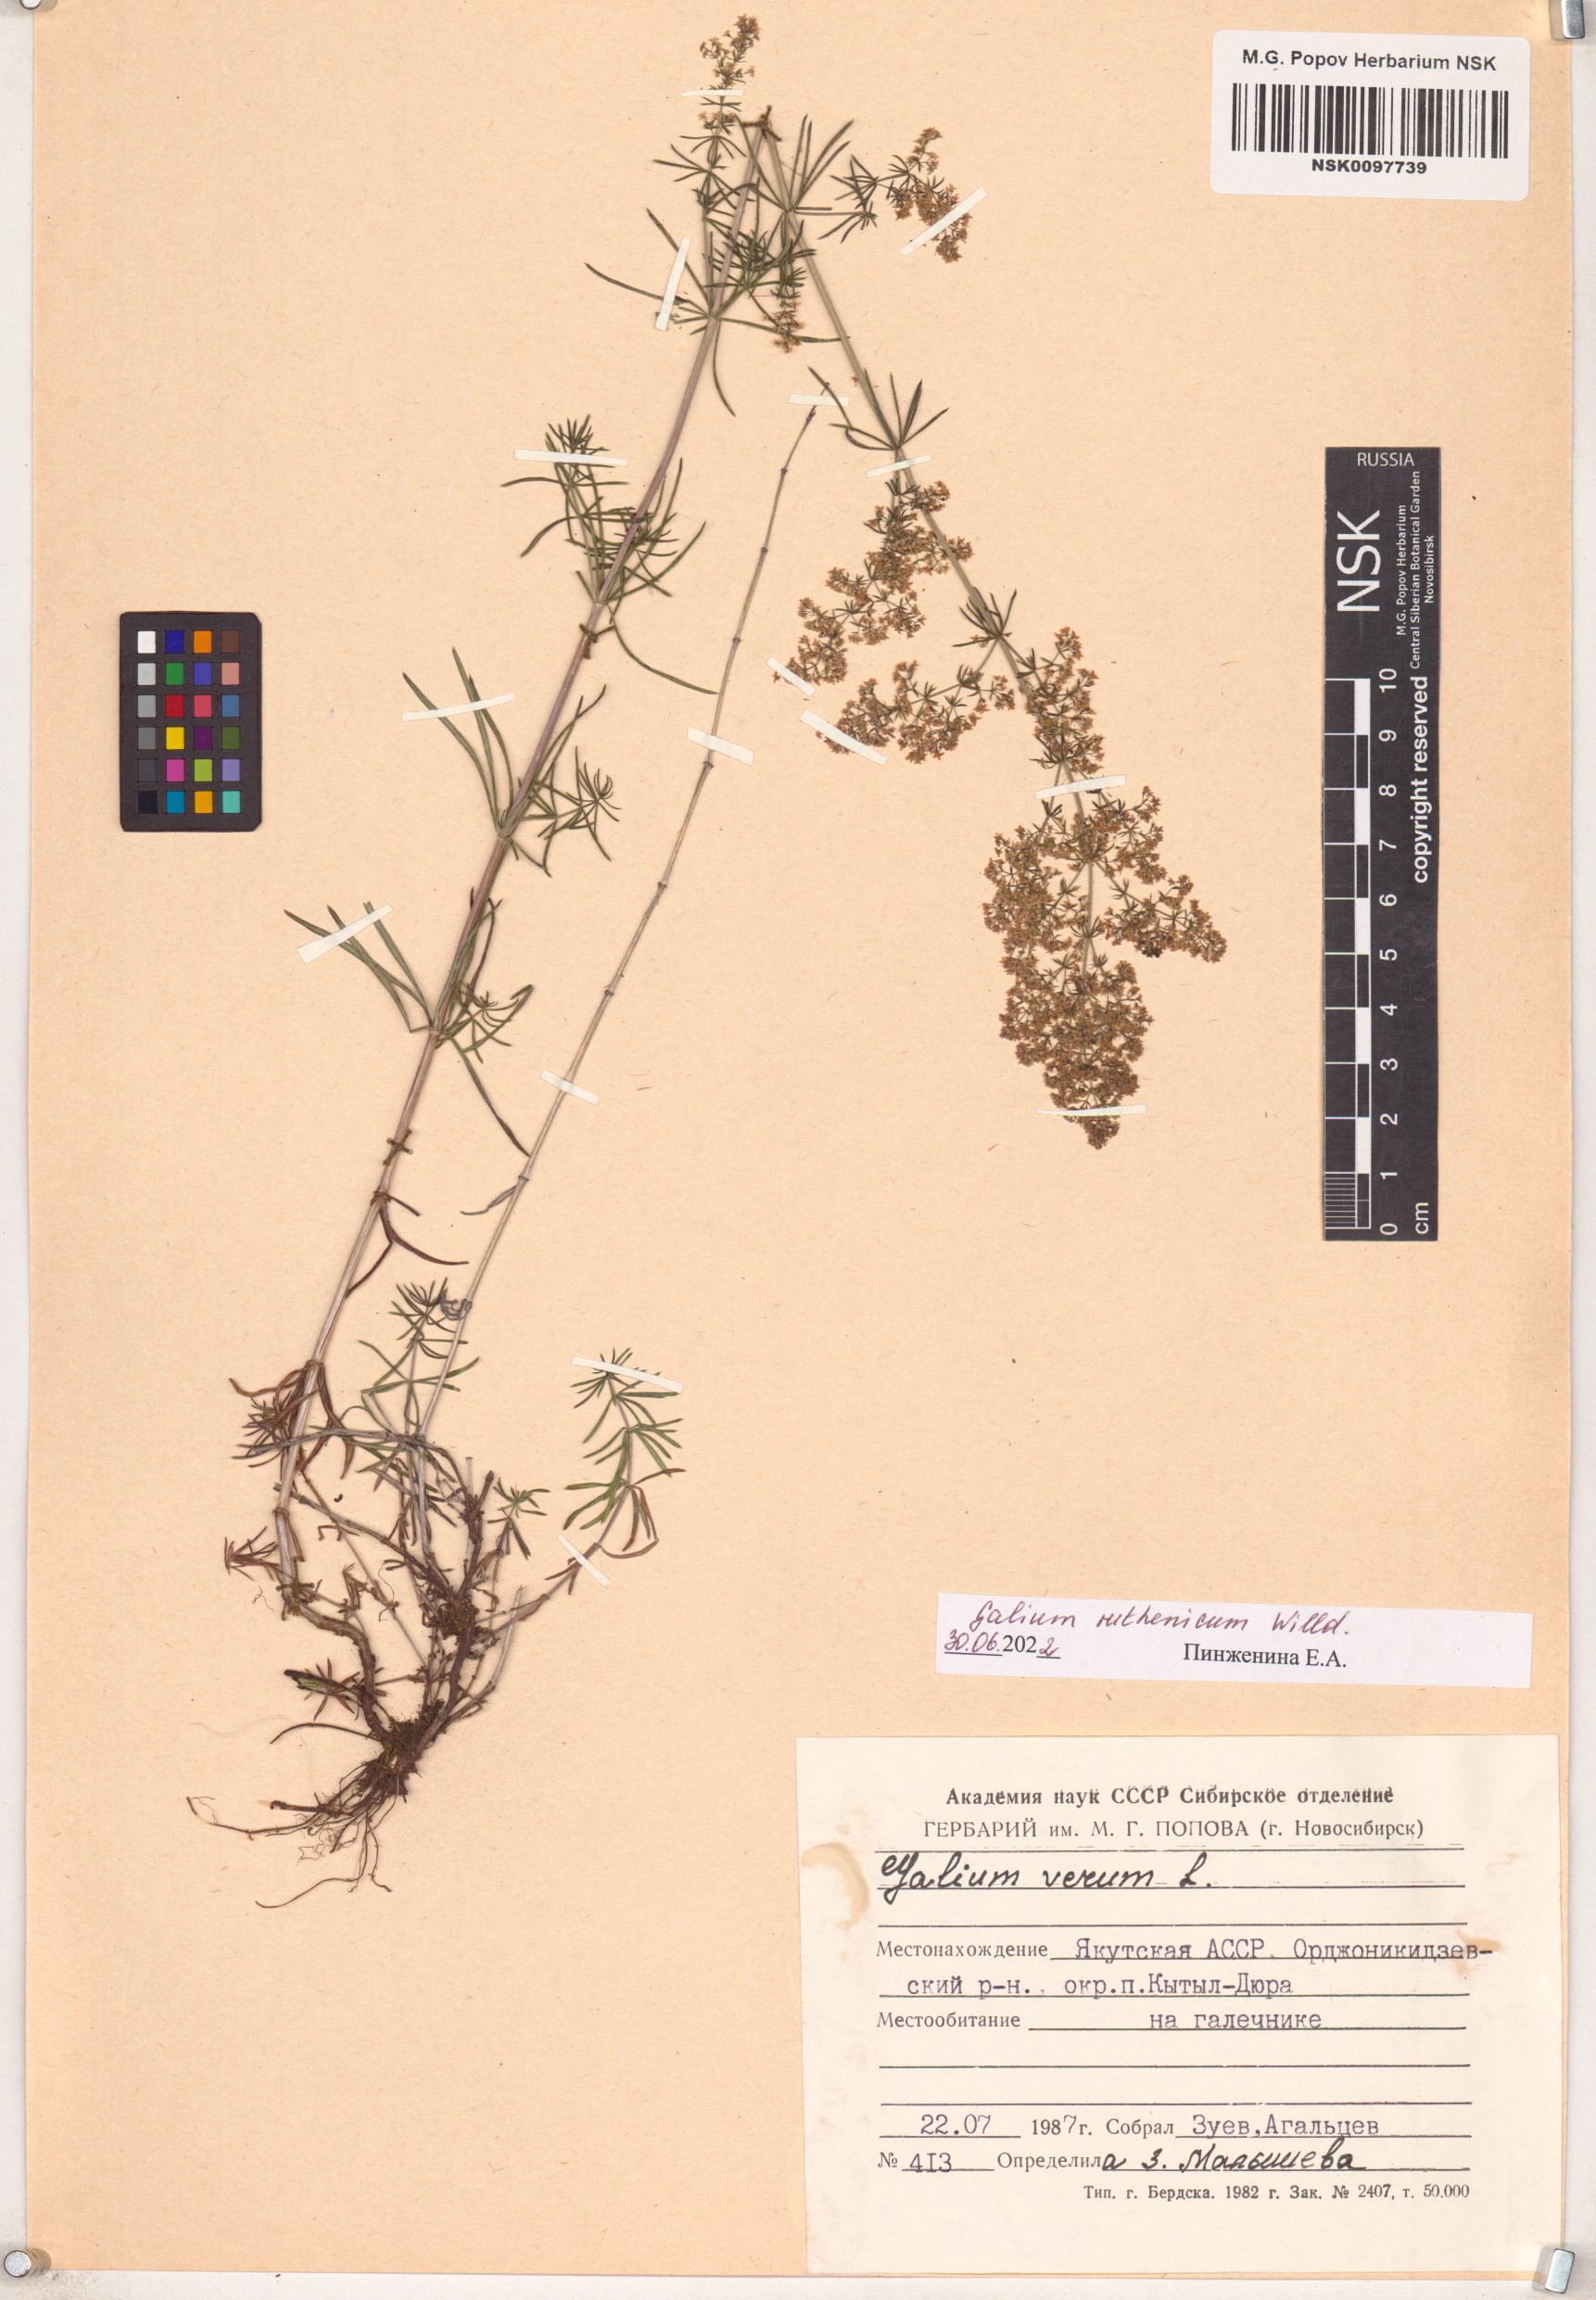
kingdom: Plantae
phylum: Tracheophyta
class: Magnoliopsida
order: Gentianales
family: Rubiaceae
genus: Galium
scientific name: Galium verum
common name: Lady's bedstraw
